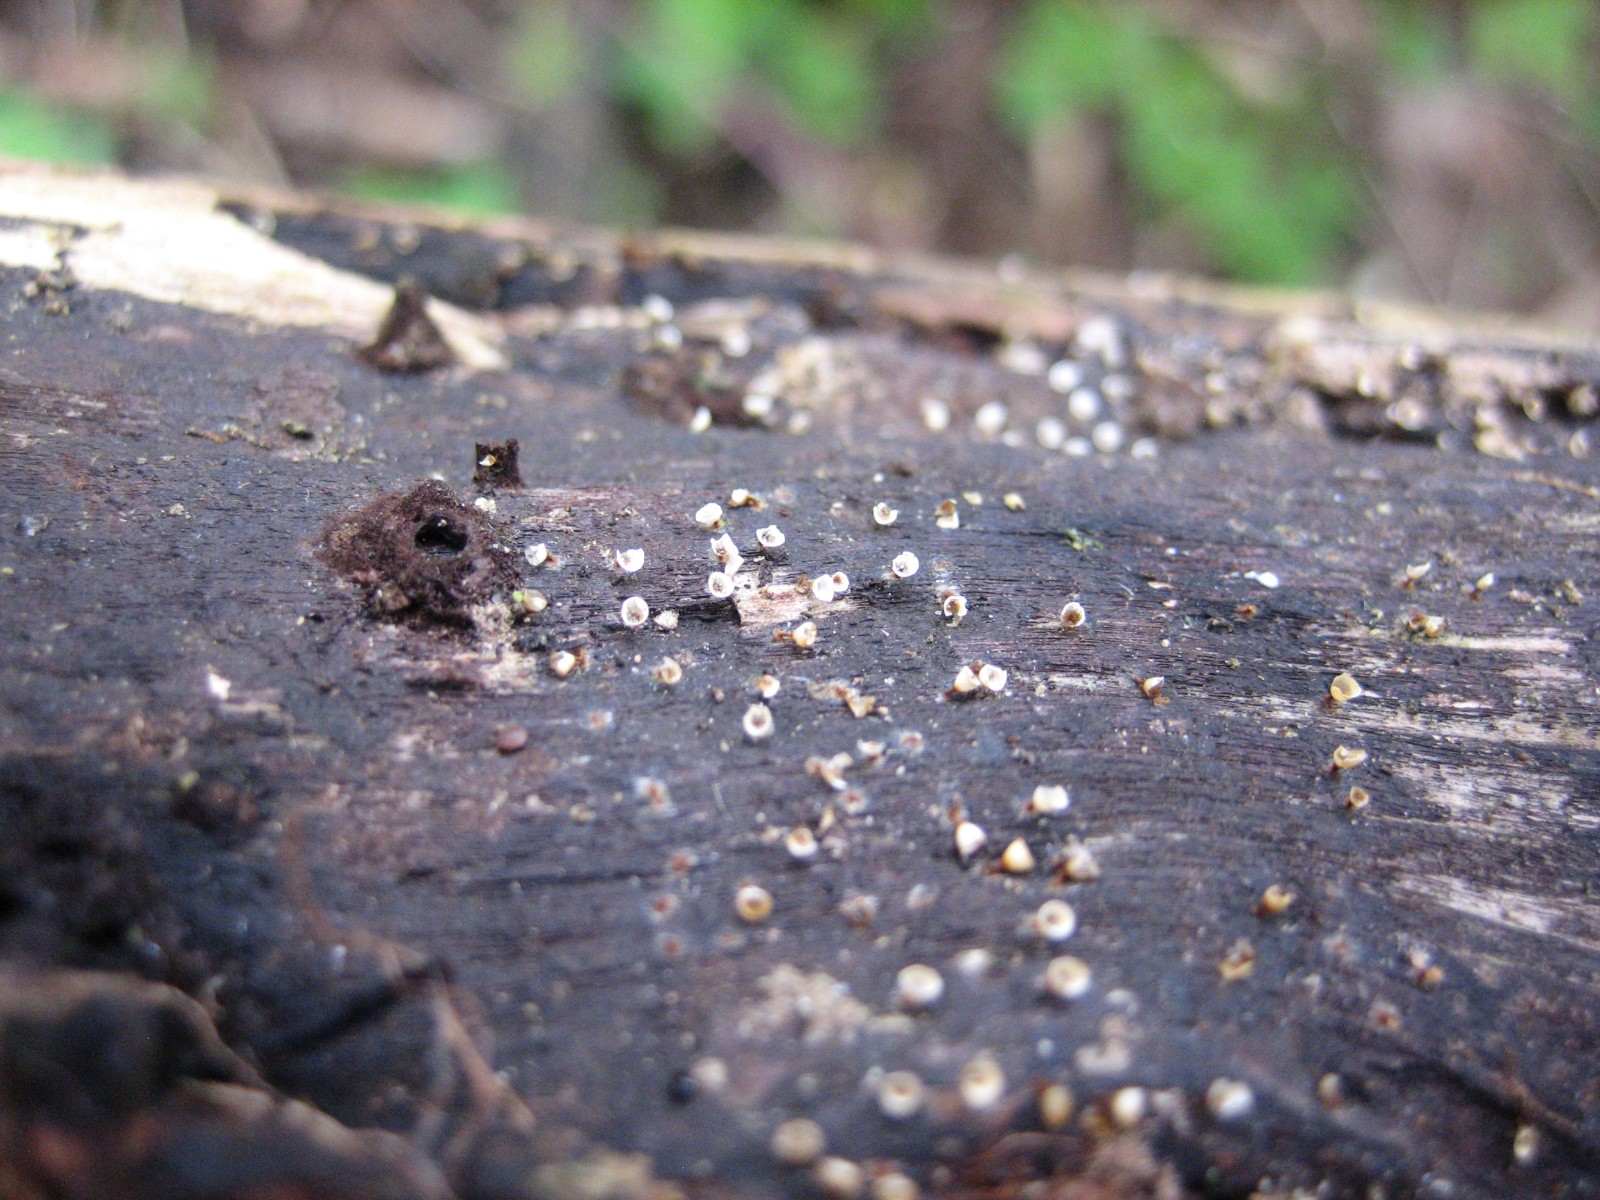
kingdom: Protozoa
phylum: Mycetozoa
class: Myxomycetes
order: Physarales
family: Physaraceae
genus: Craterium
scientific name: Craterium minutum
